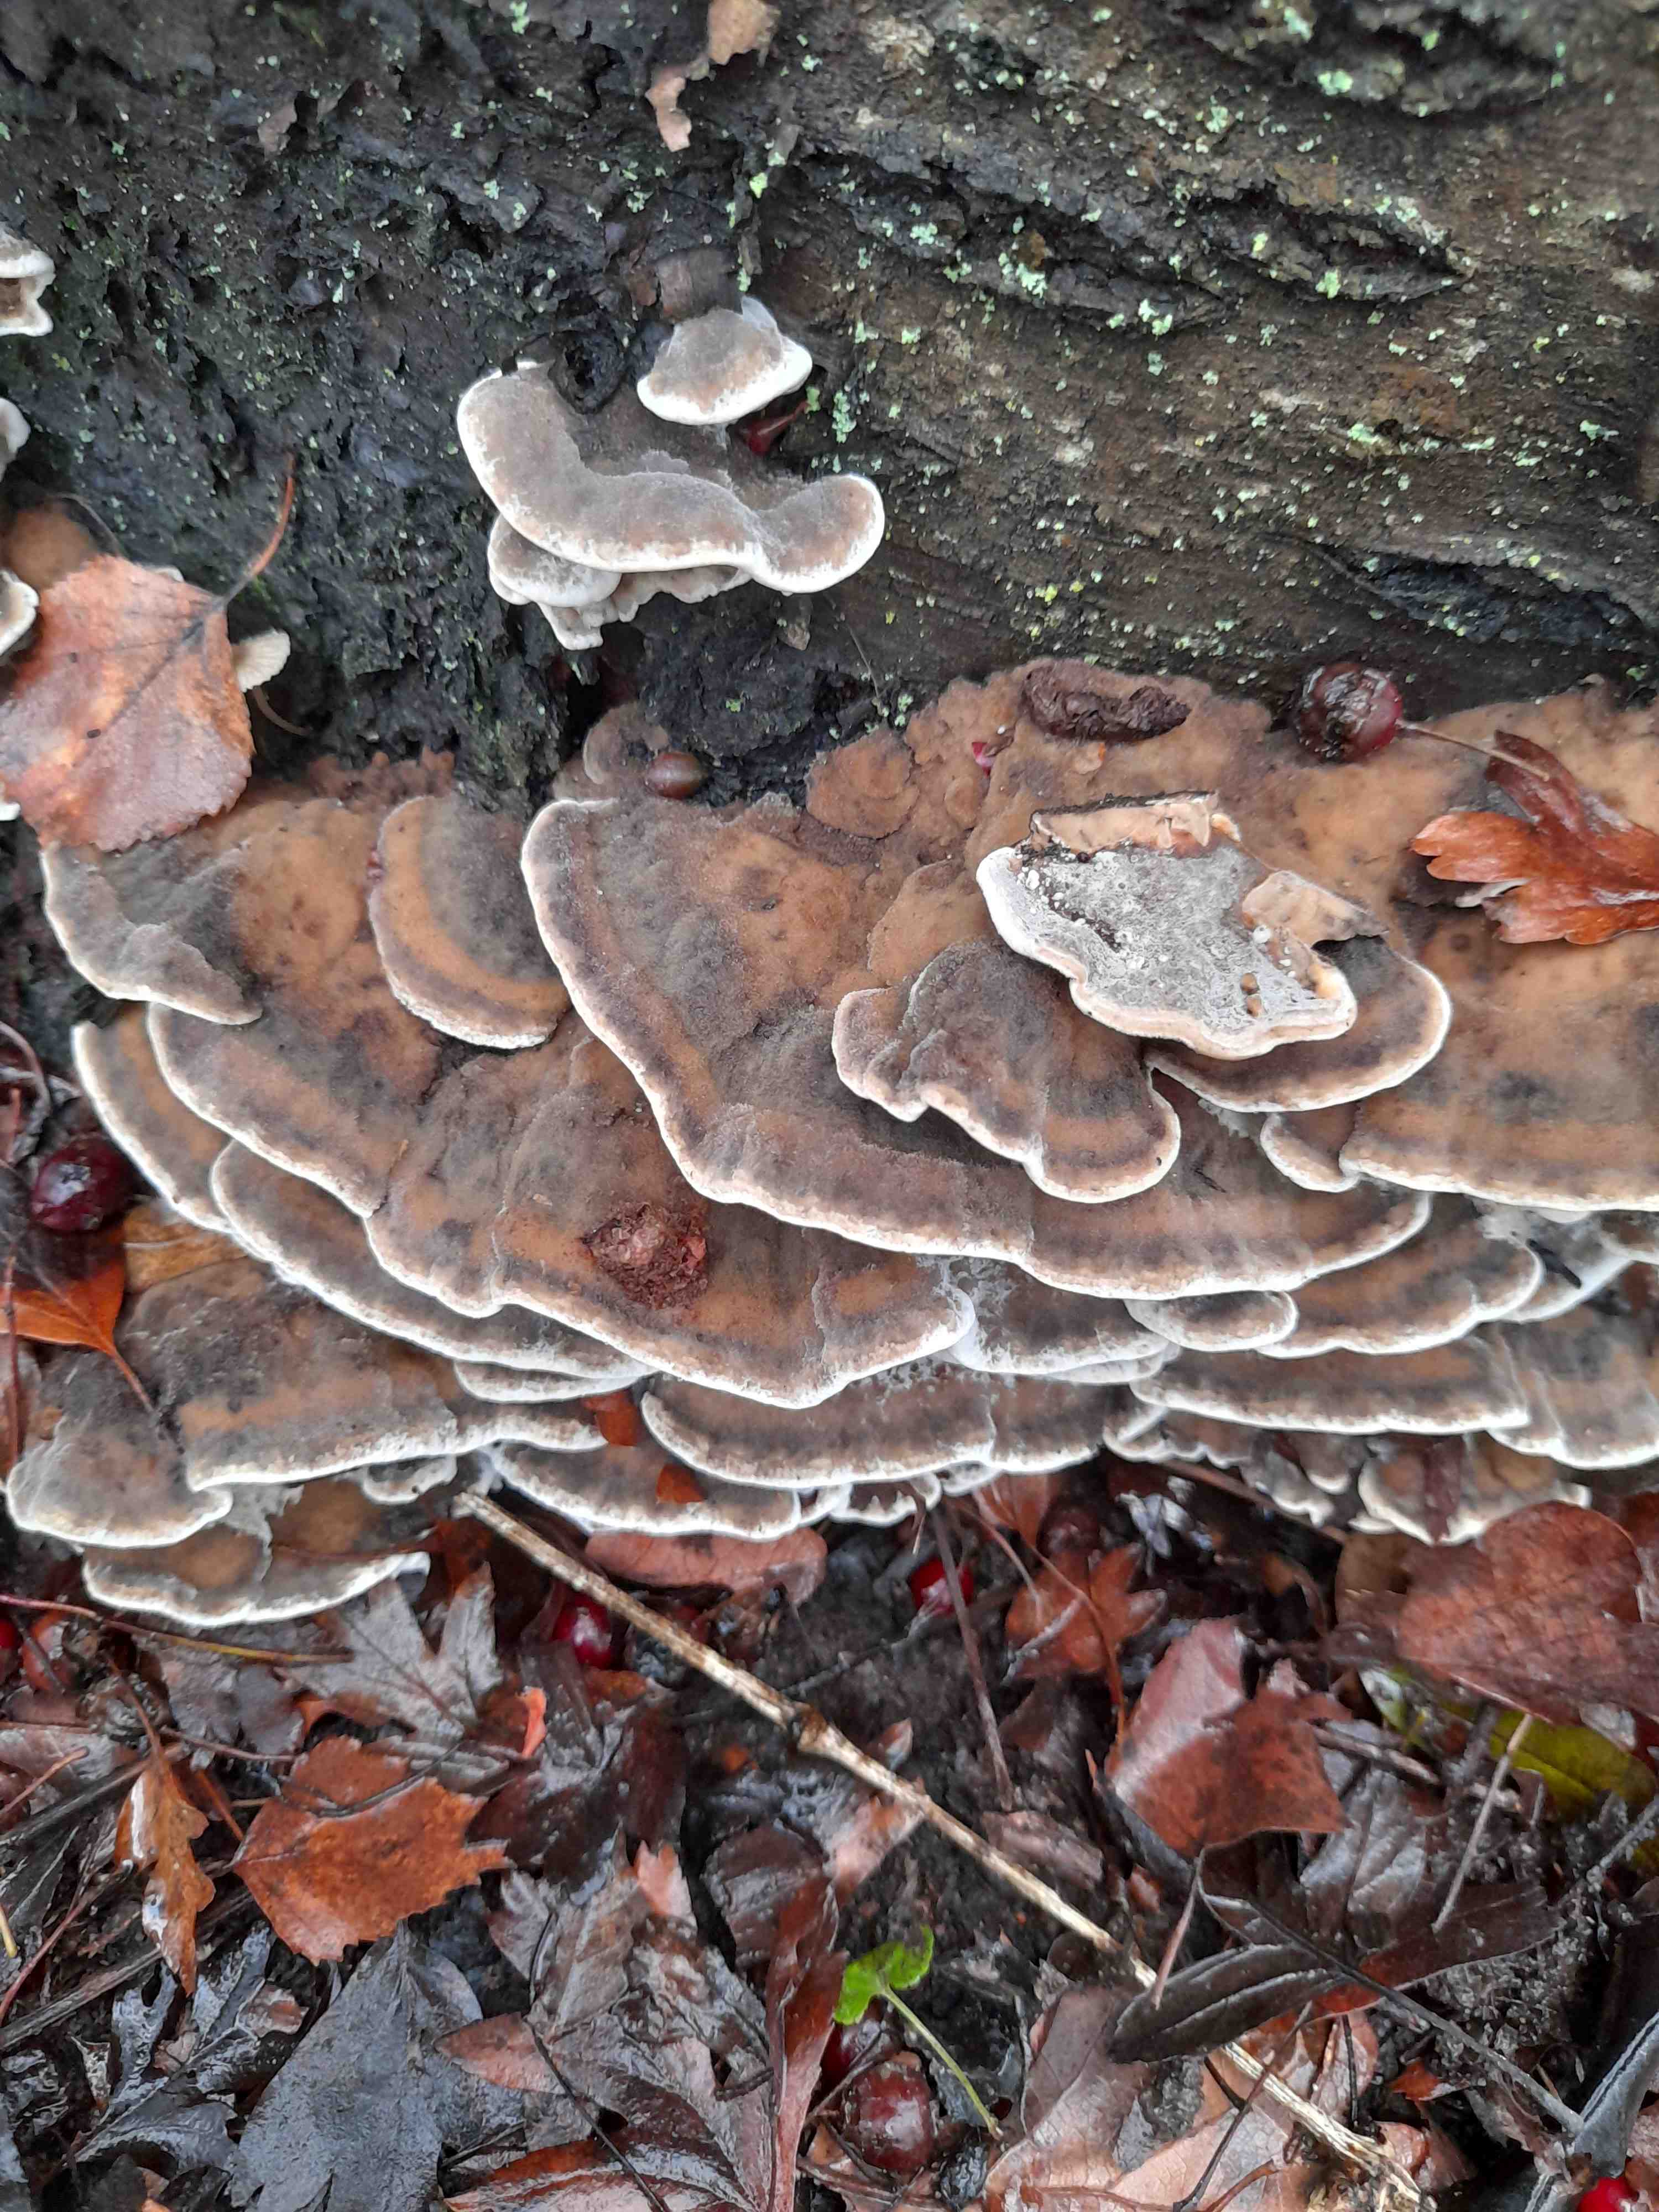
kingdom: Fungi
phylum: Basidiomycota
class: Agaricomycetes
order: Polyporales
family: Phanerochaetaceae
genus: Bjerkandera
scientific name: Bjerkandera adusta
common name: sveden sodporesvamp
